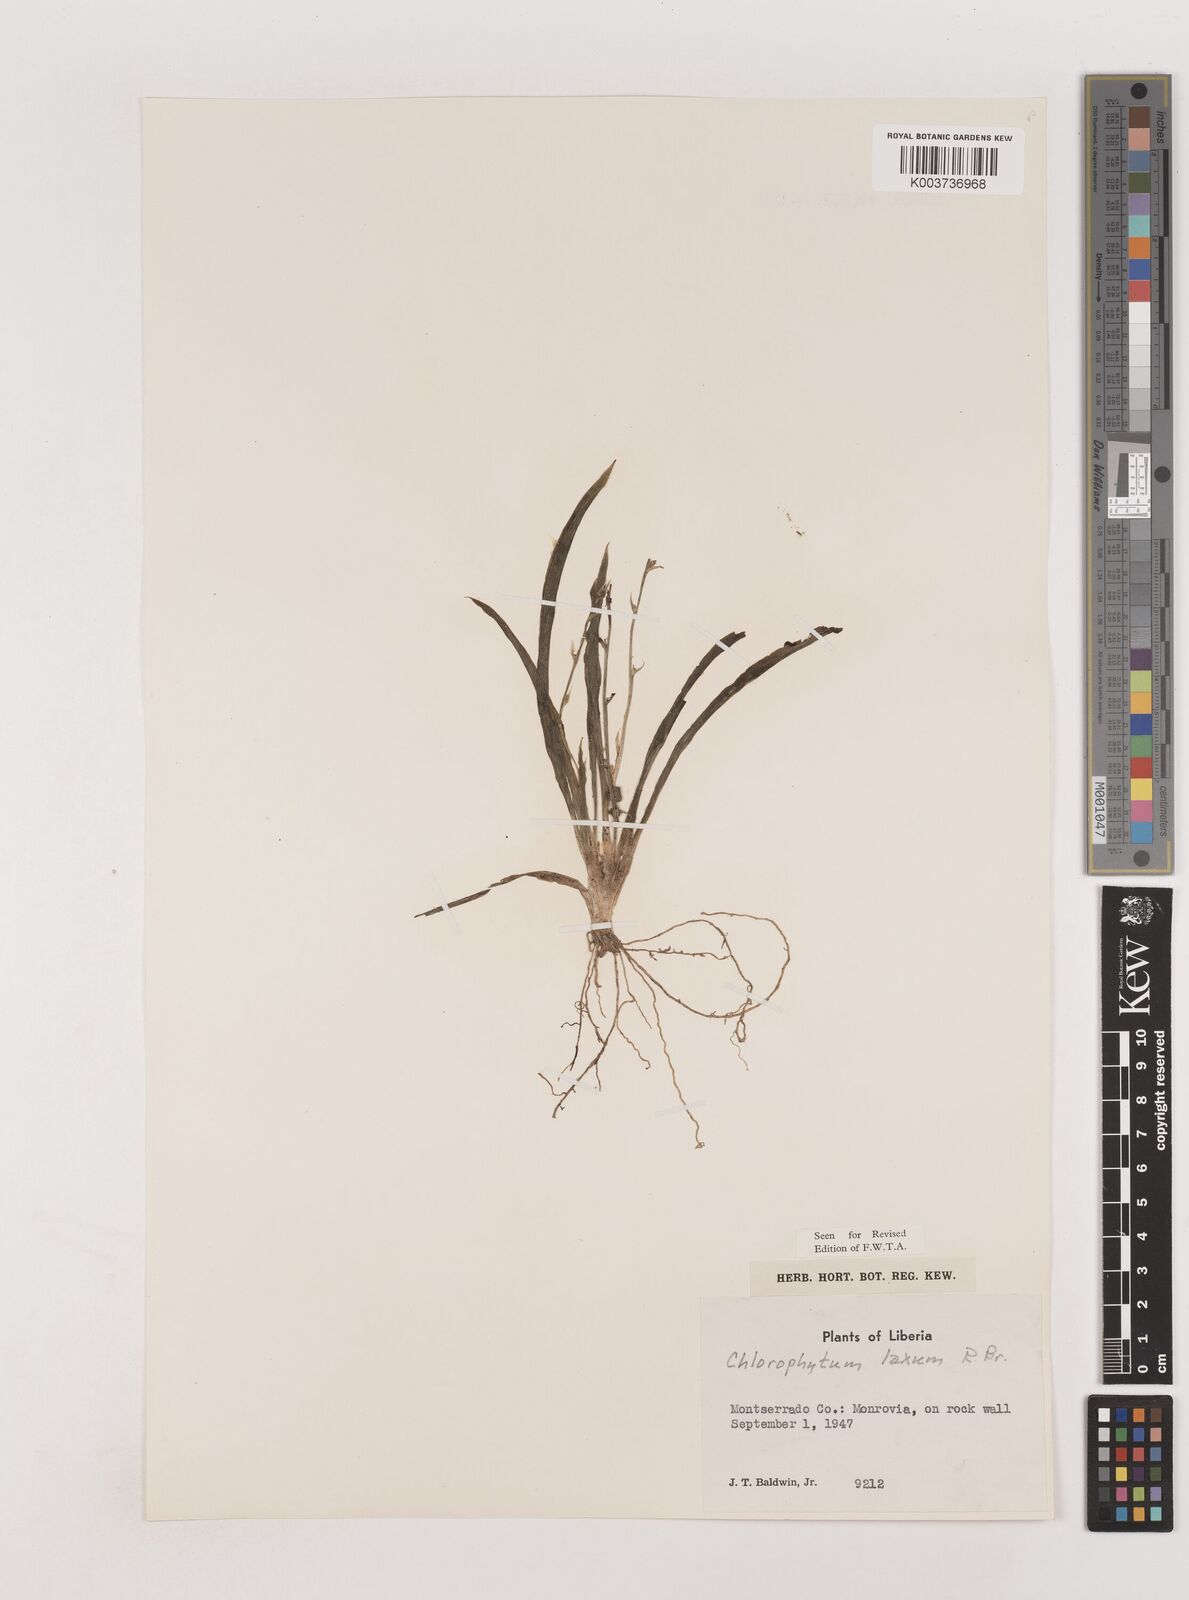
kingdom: Plantae
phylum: Tracheophyta
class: Liliopsida
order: Asparagales
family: Asparagaceae
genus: Chlorophytum
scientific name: Chlorophytum laxum
